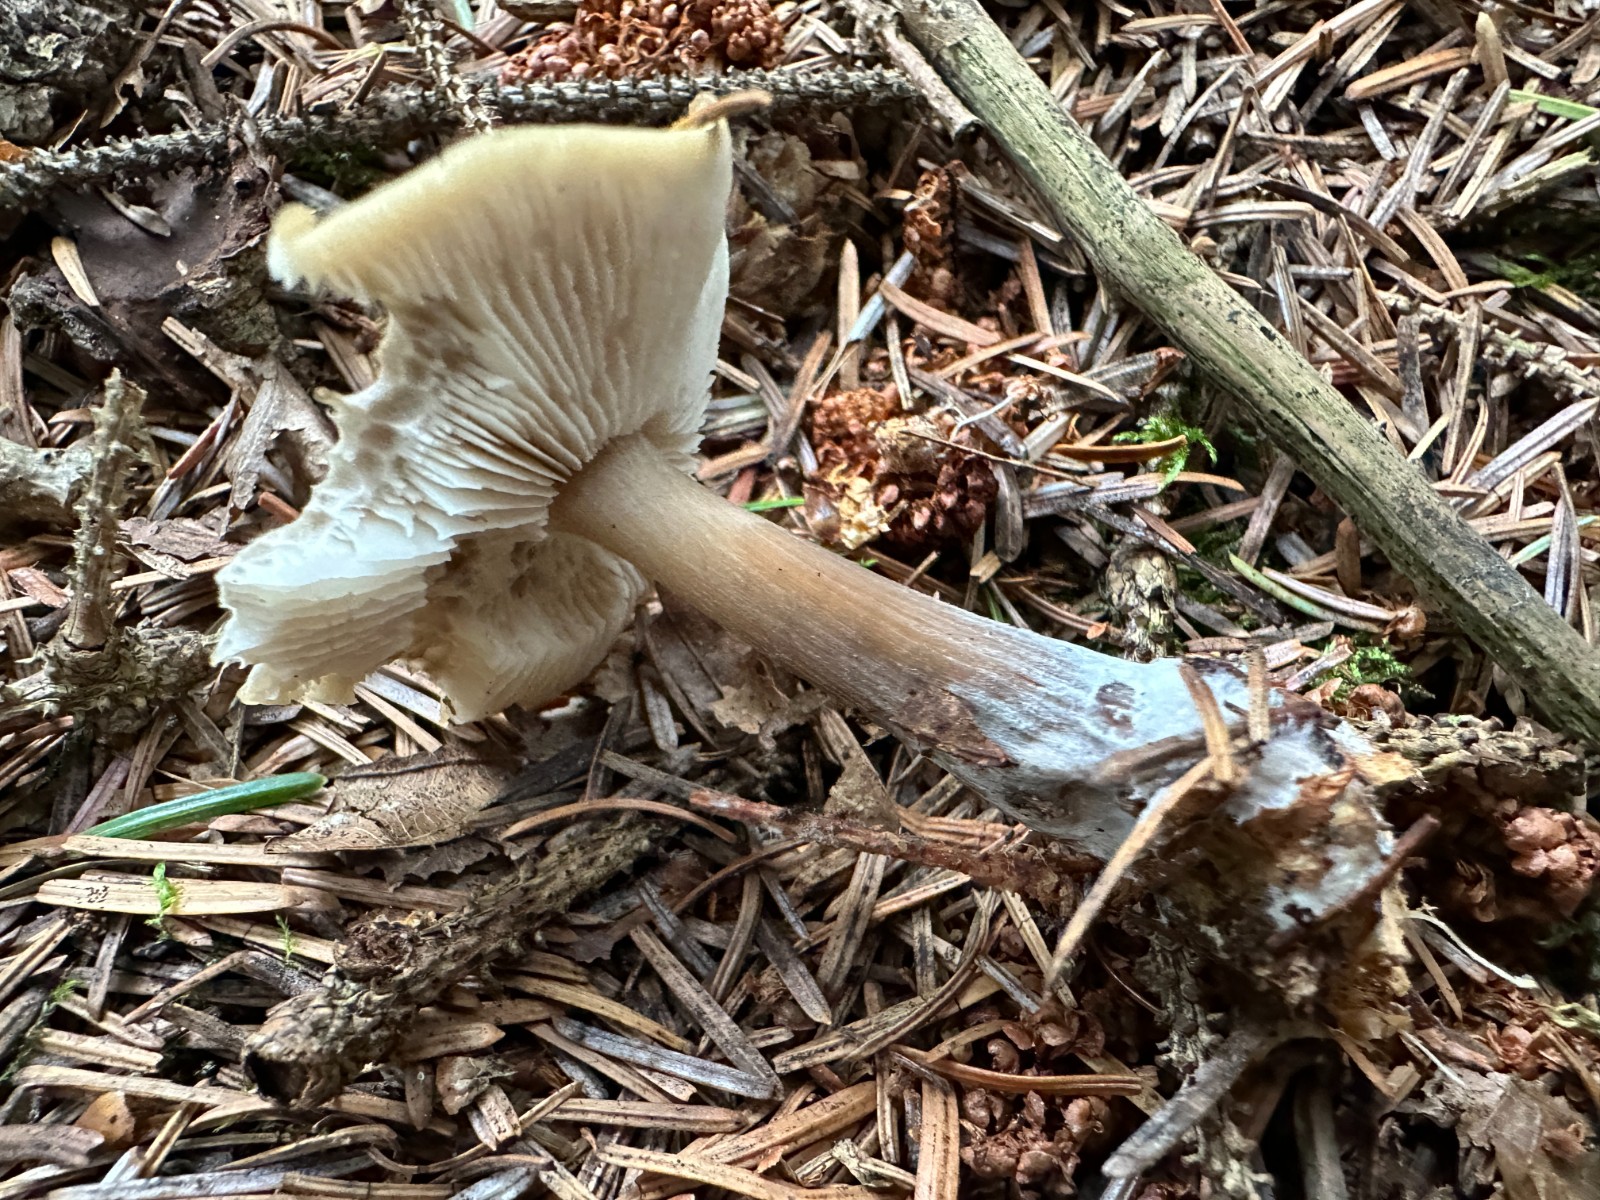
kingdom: Fungi
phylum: Basidiomycota
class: Agaricomycetes
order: Agaricales
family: Omphalotaceae
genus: Rhodocollybia
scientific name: Rhodocollybia asema
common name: horngrå fladhat
